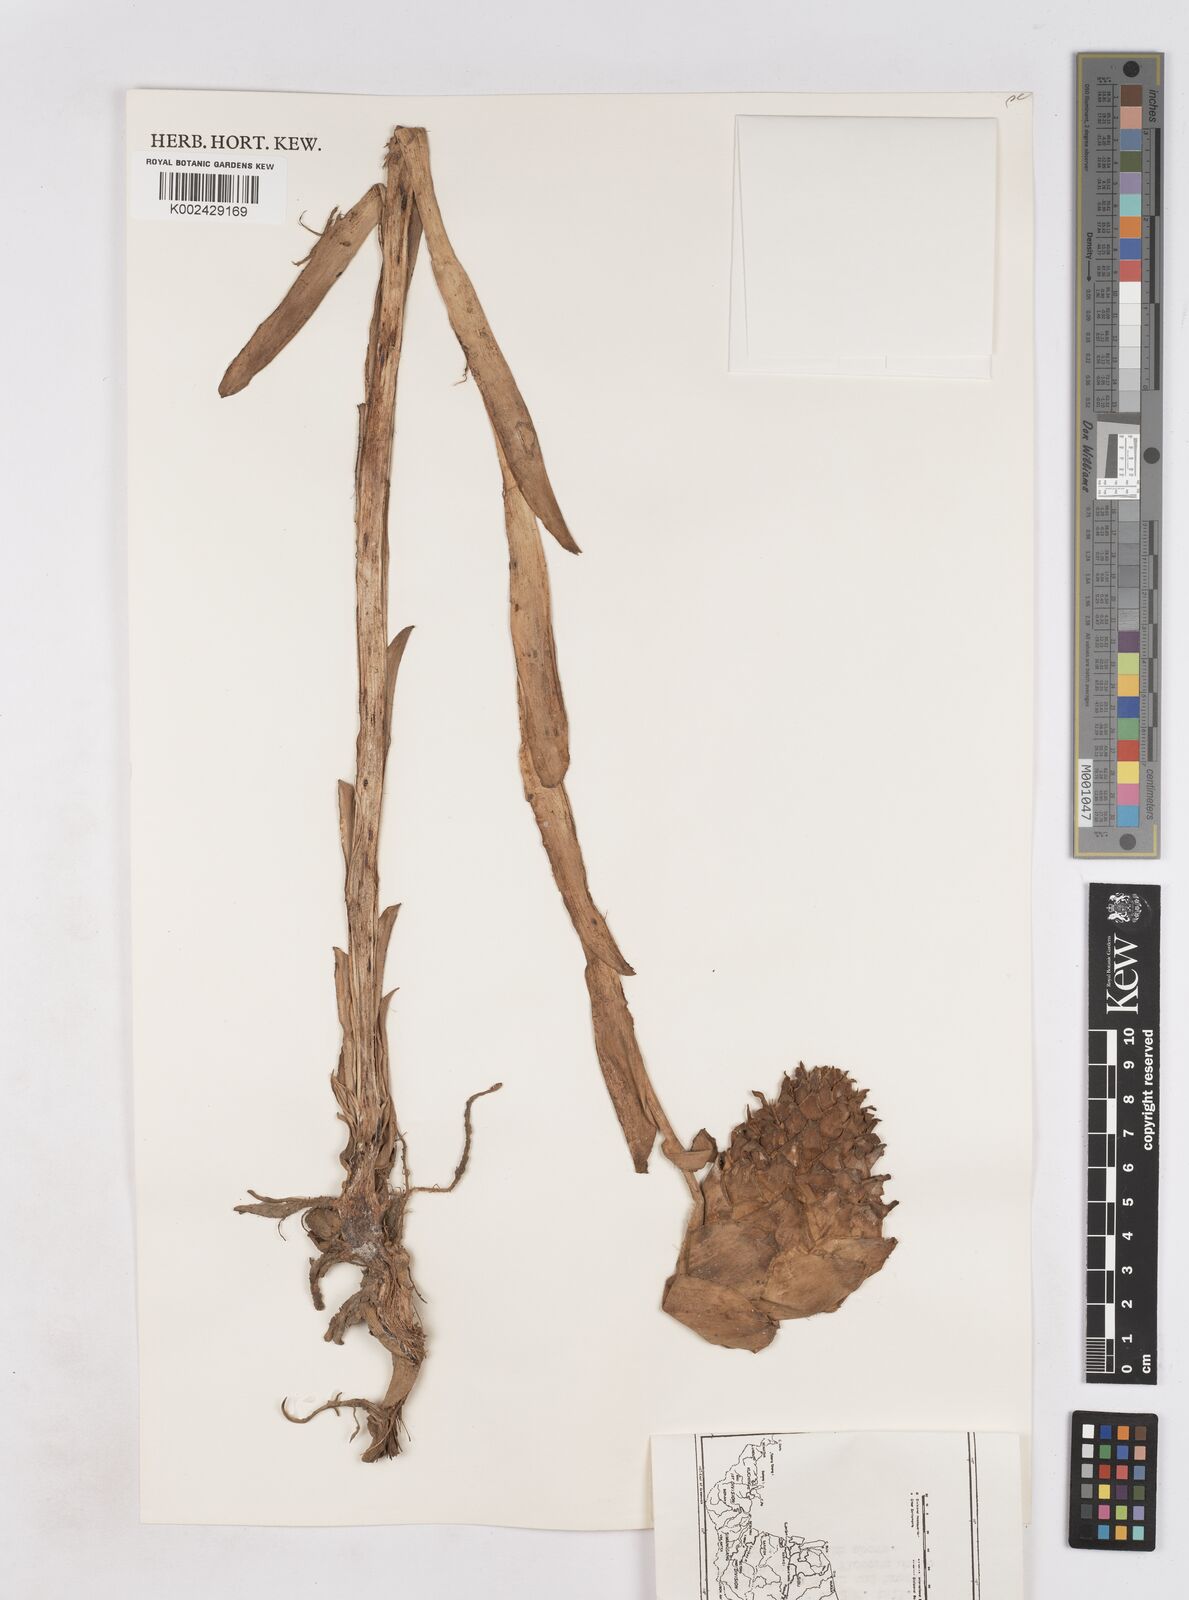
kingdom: Plantae
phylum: Tracheophyta
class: Liliopsida
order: Zingiberales
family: Zingiberaceae
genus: Zingiber
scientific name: Zingiber
